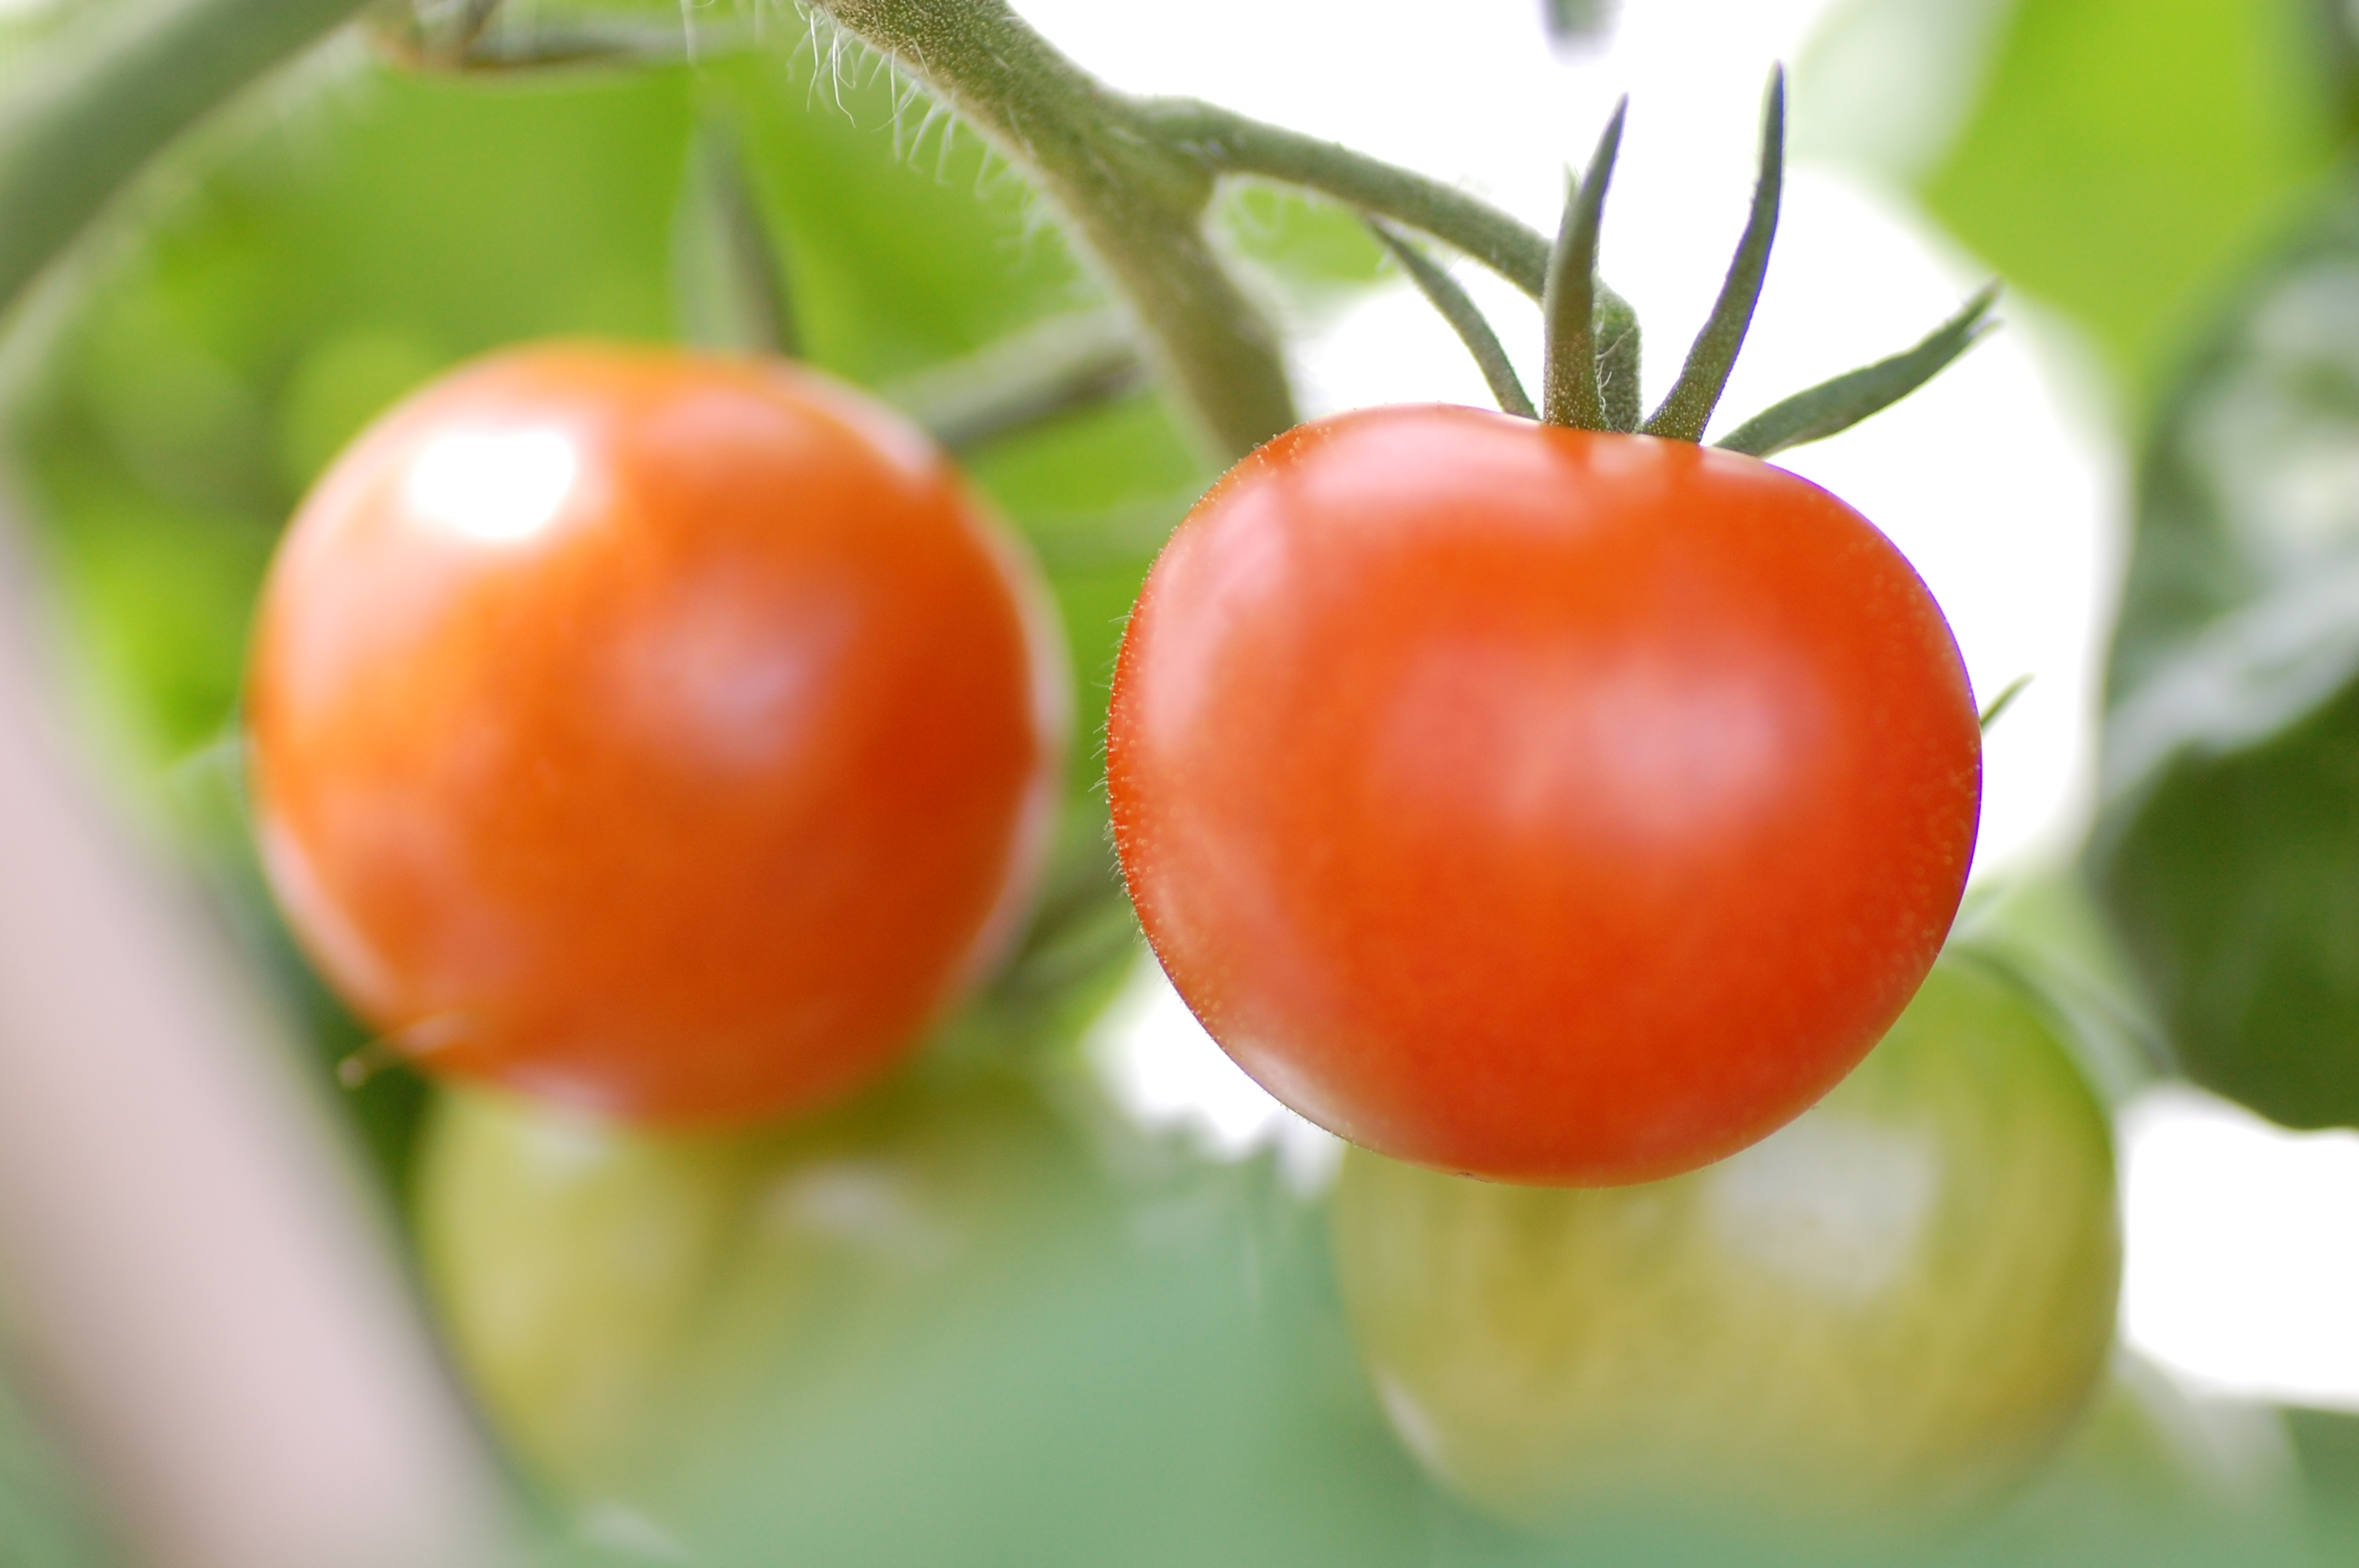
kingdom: Plantae
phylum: Tracheophyta
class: Magnoliopsida
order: Solanales
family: Solanaceae
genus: Solanum
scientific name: Solanum lycopersicum
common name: Garden tomato
